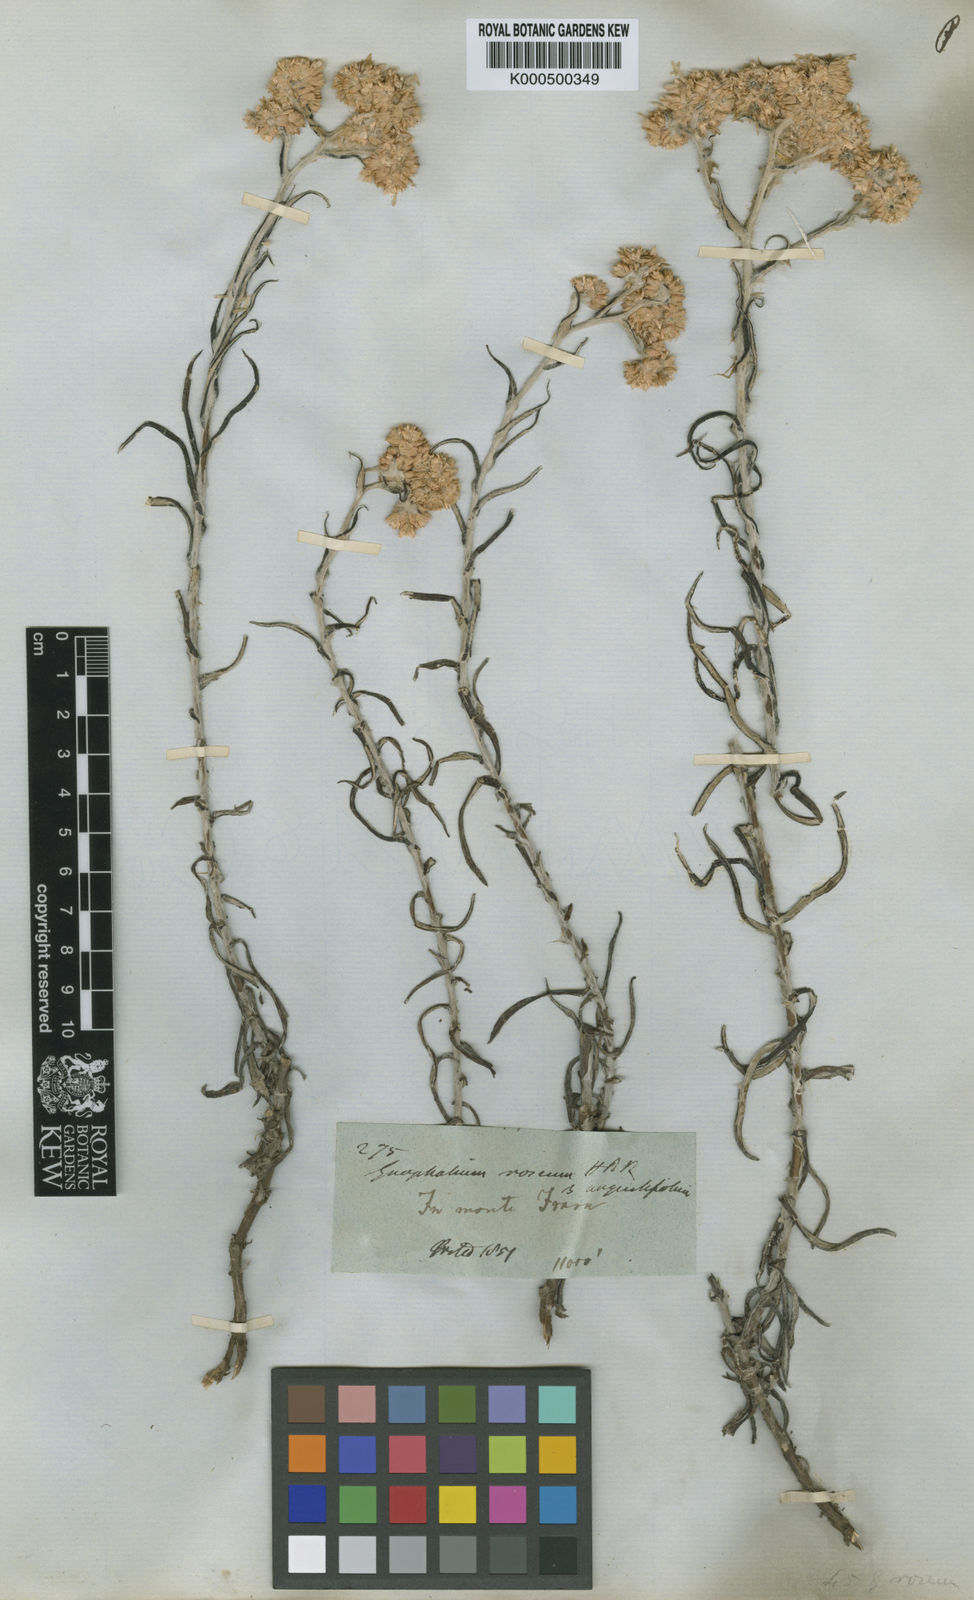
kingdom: Plantae
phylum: Tracheophyta
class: Magnoliopsida
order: Asterales
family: Asteraceae
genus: Pseudognaphalium
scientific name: Pseudognaphalium attenuatum
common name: Tapered cudweed
